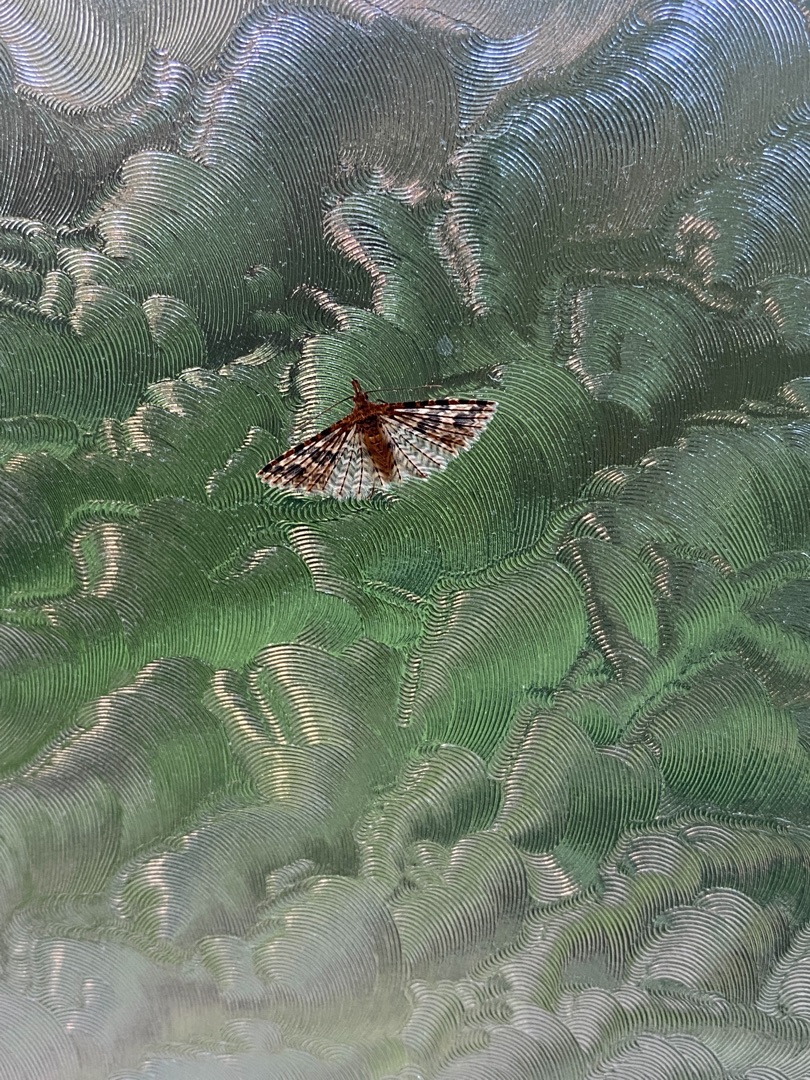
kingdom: Animalia
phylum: Arthropoda
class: Insecta
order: Lepidoptera
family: Alucitidae
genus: Alucita
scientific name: Alucita hexadactyla
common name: Kaprifoliefjermøl
